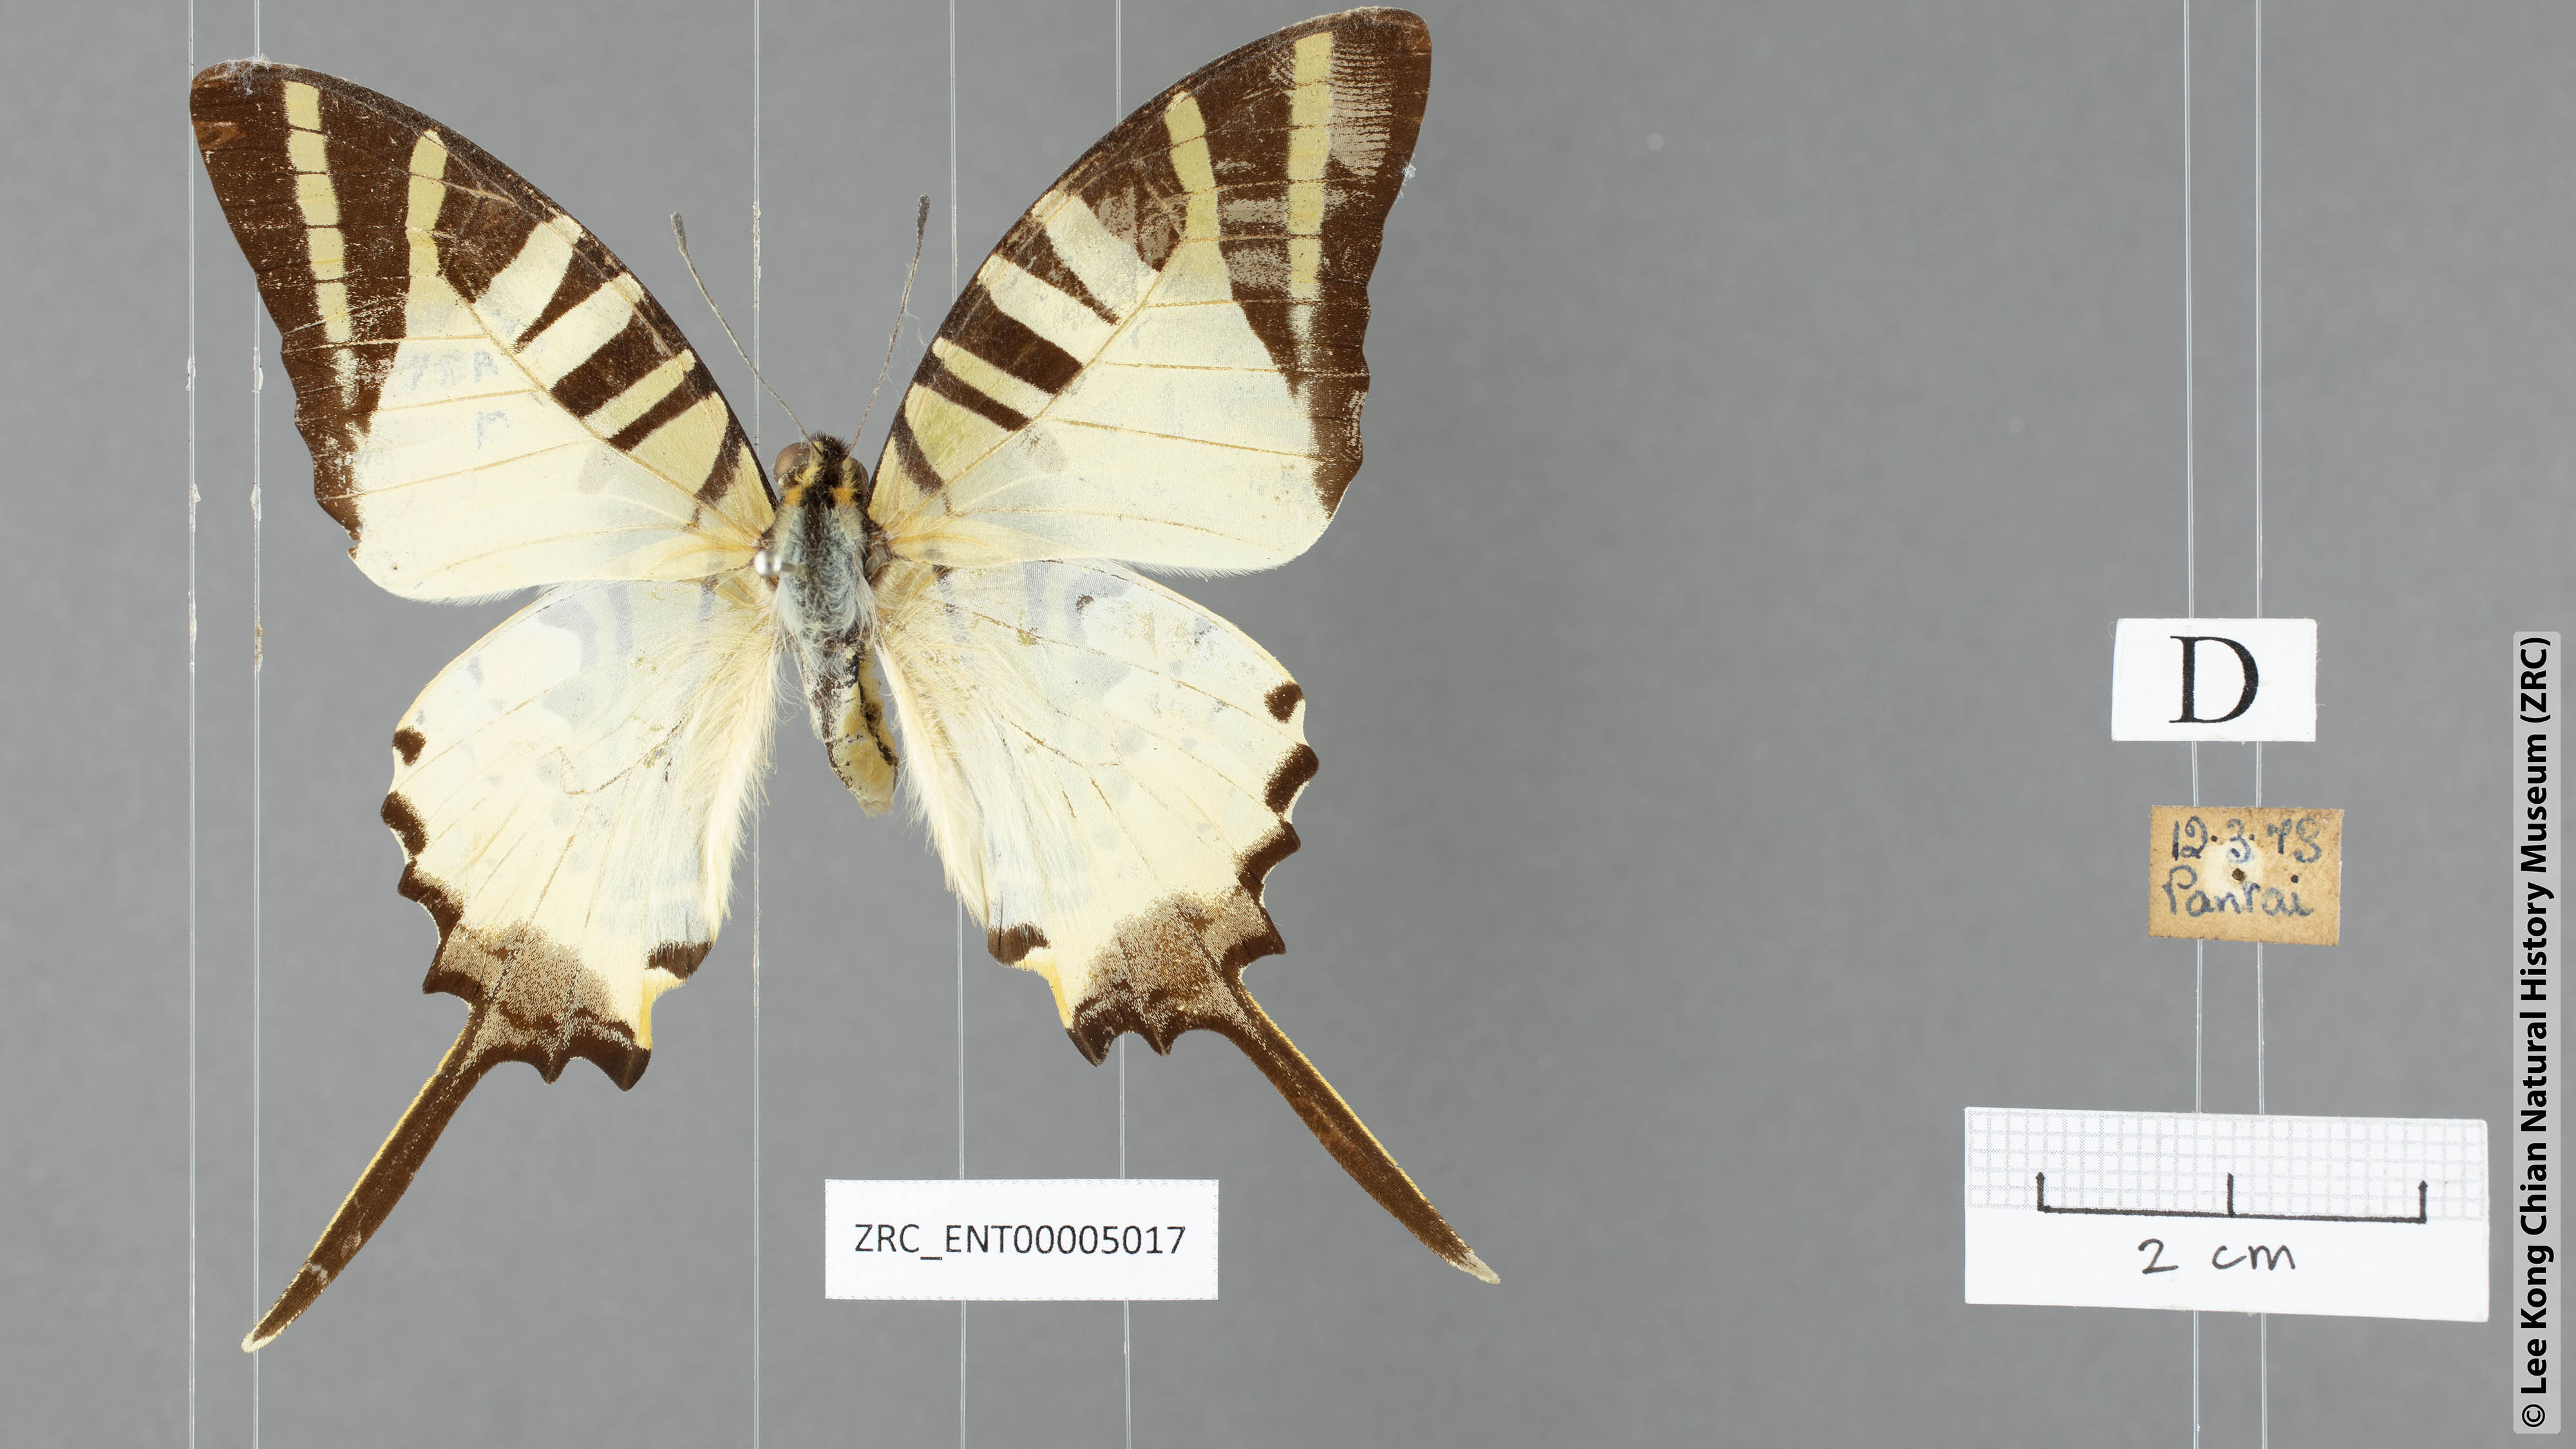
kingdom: Animalia
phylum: Arthropoda
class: Insecta
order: Lepidoptera
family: Papilionidae
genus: Graphium
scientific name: Graphium antiphates
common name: Fivebar swordtail
